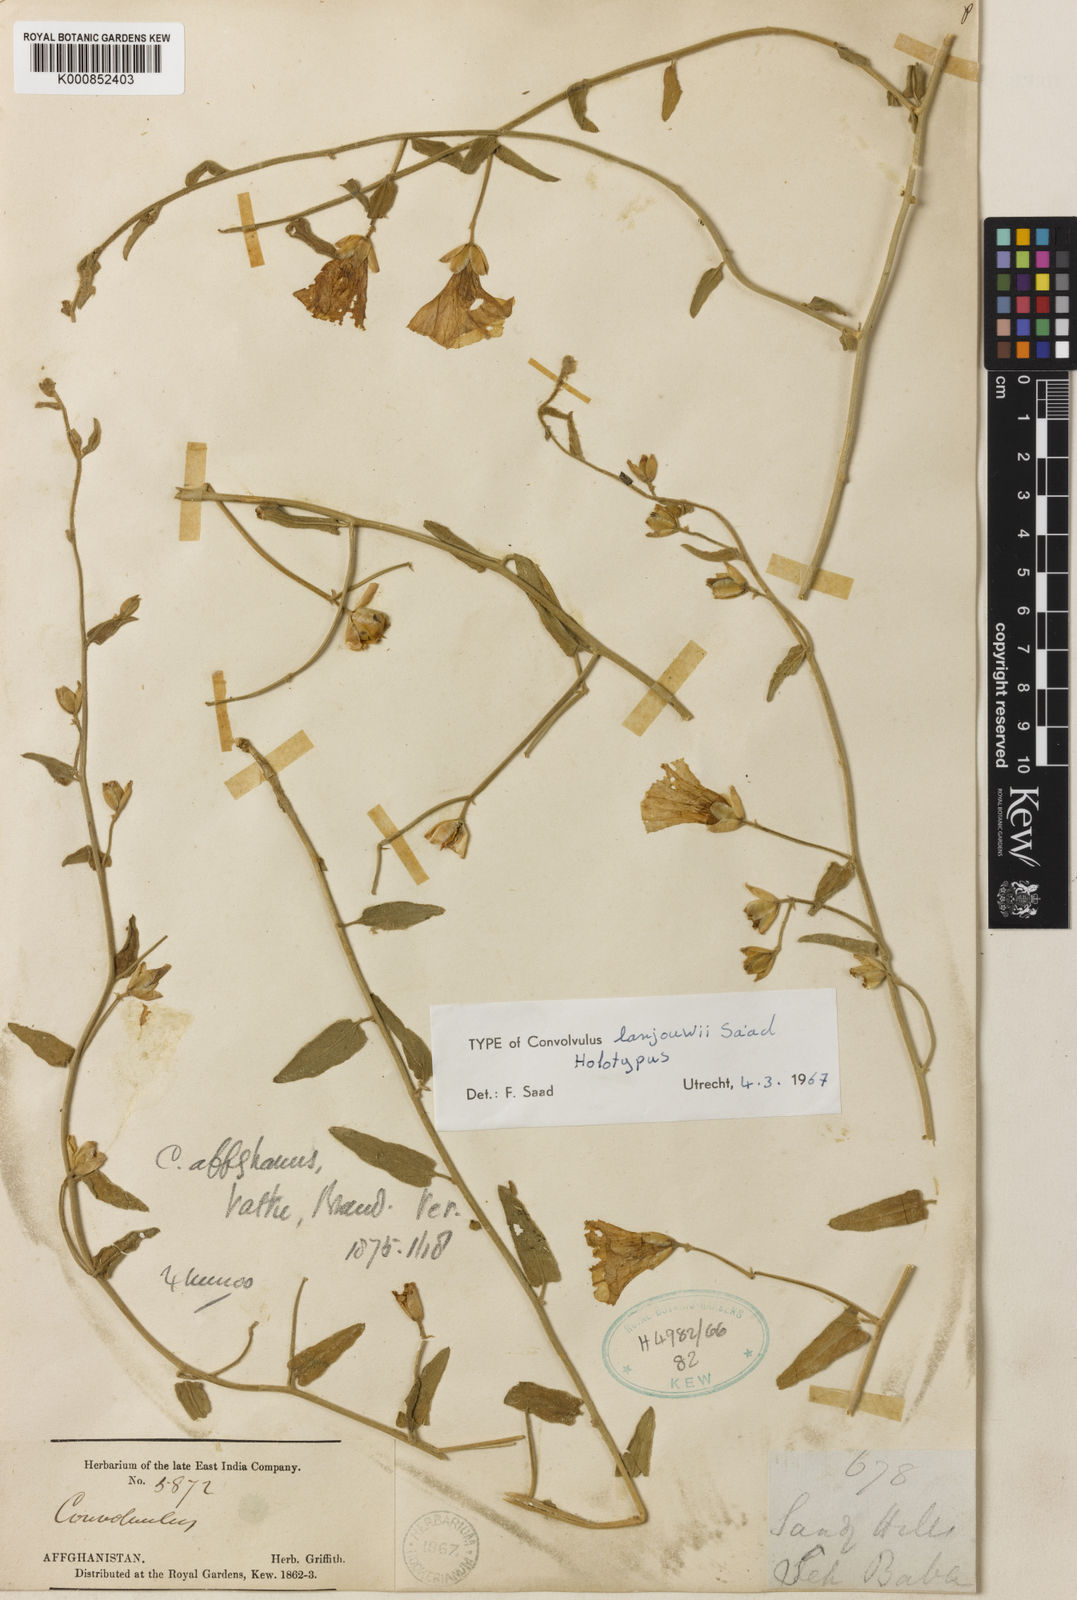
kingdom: Plantae
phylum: Tracheophyta
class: Magnoliopsida
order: Solanales
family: Convolvulaceae
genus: Convolvulus
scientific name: Convolvulus lanjouwii
